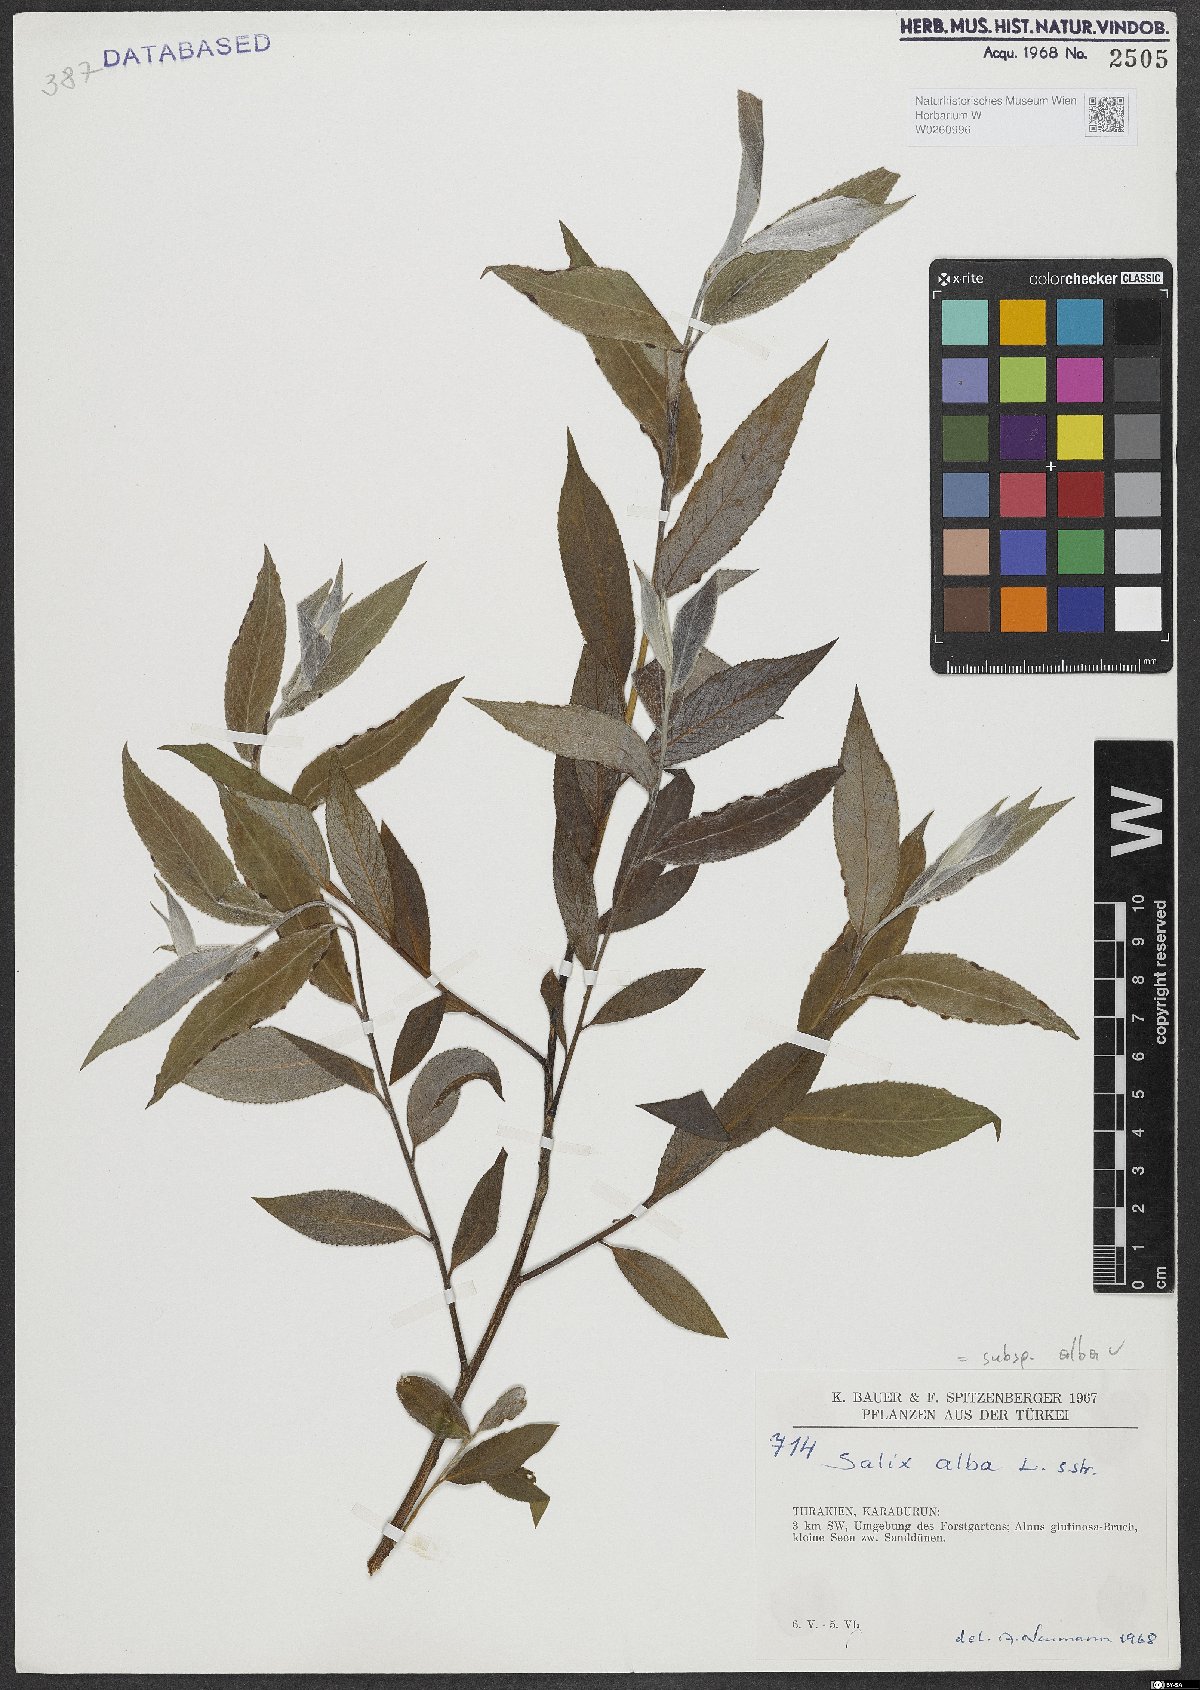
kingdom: Plantae
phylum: Tracheophyta
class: Magnoliopsida
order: Malpighiales
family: Salicaceae
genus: Salix
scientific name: Salix alba
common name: White willow
